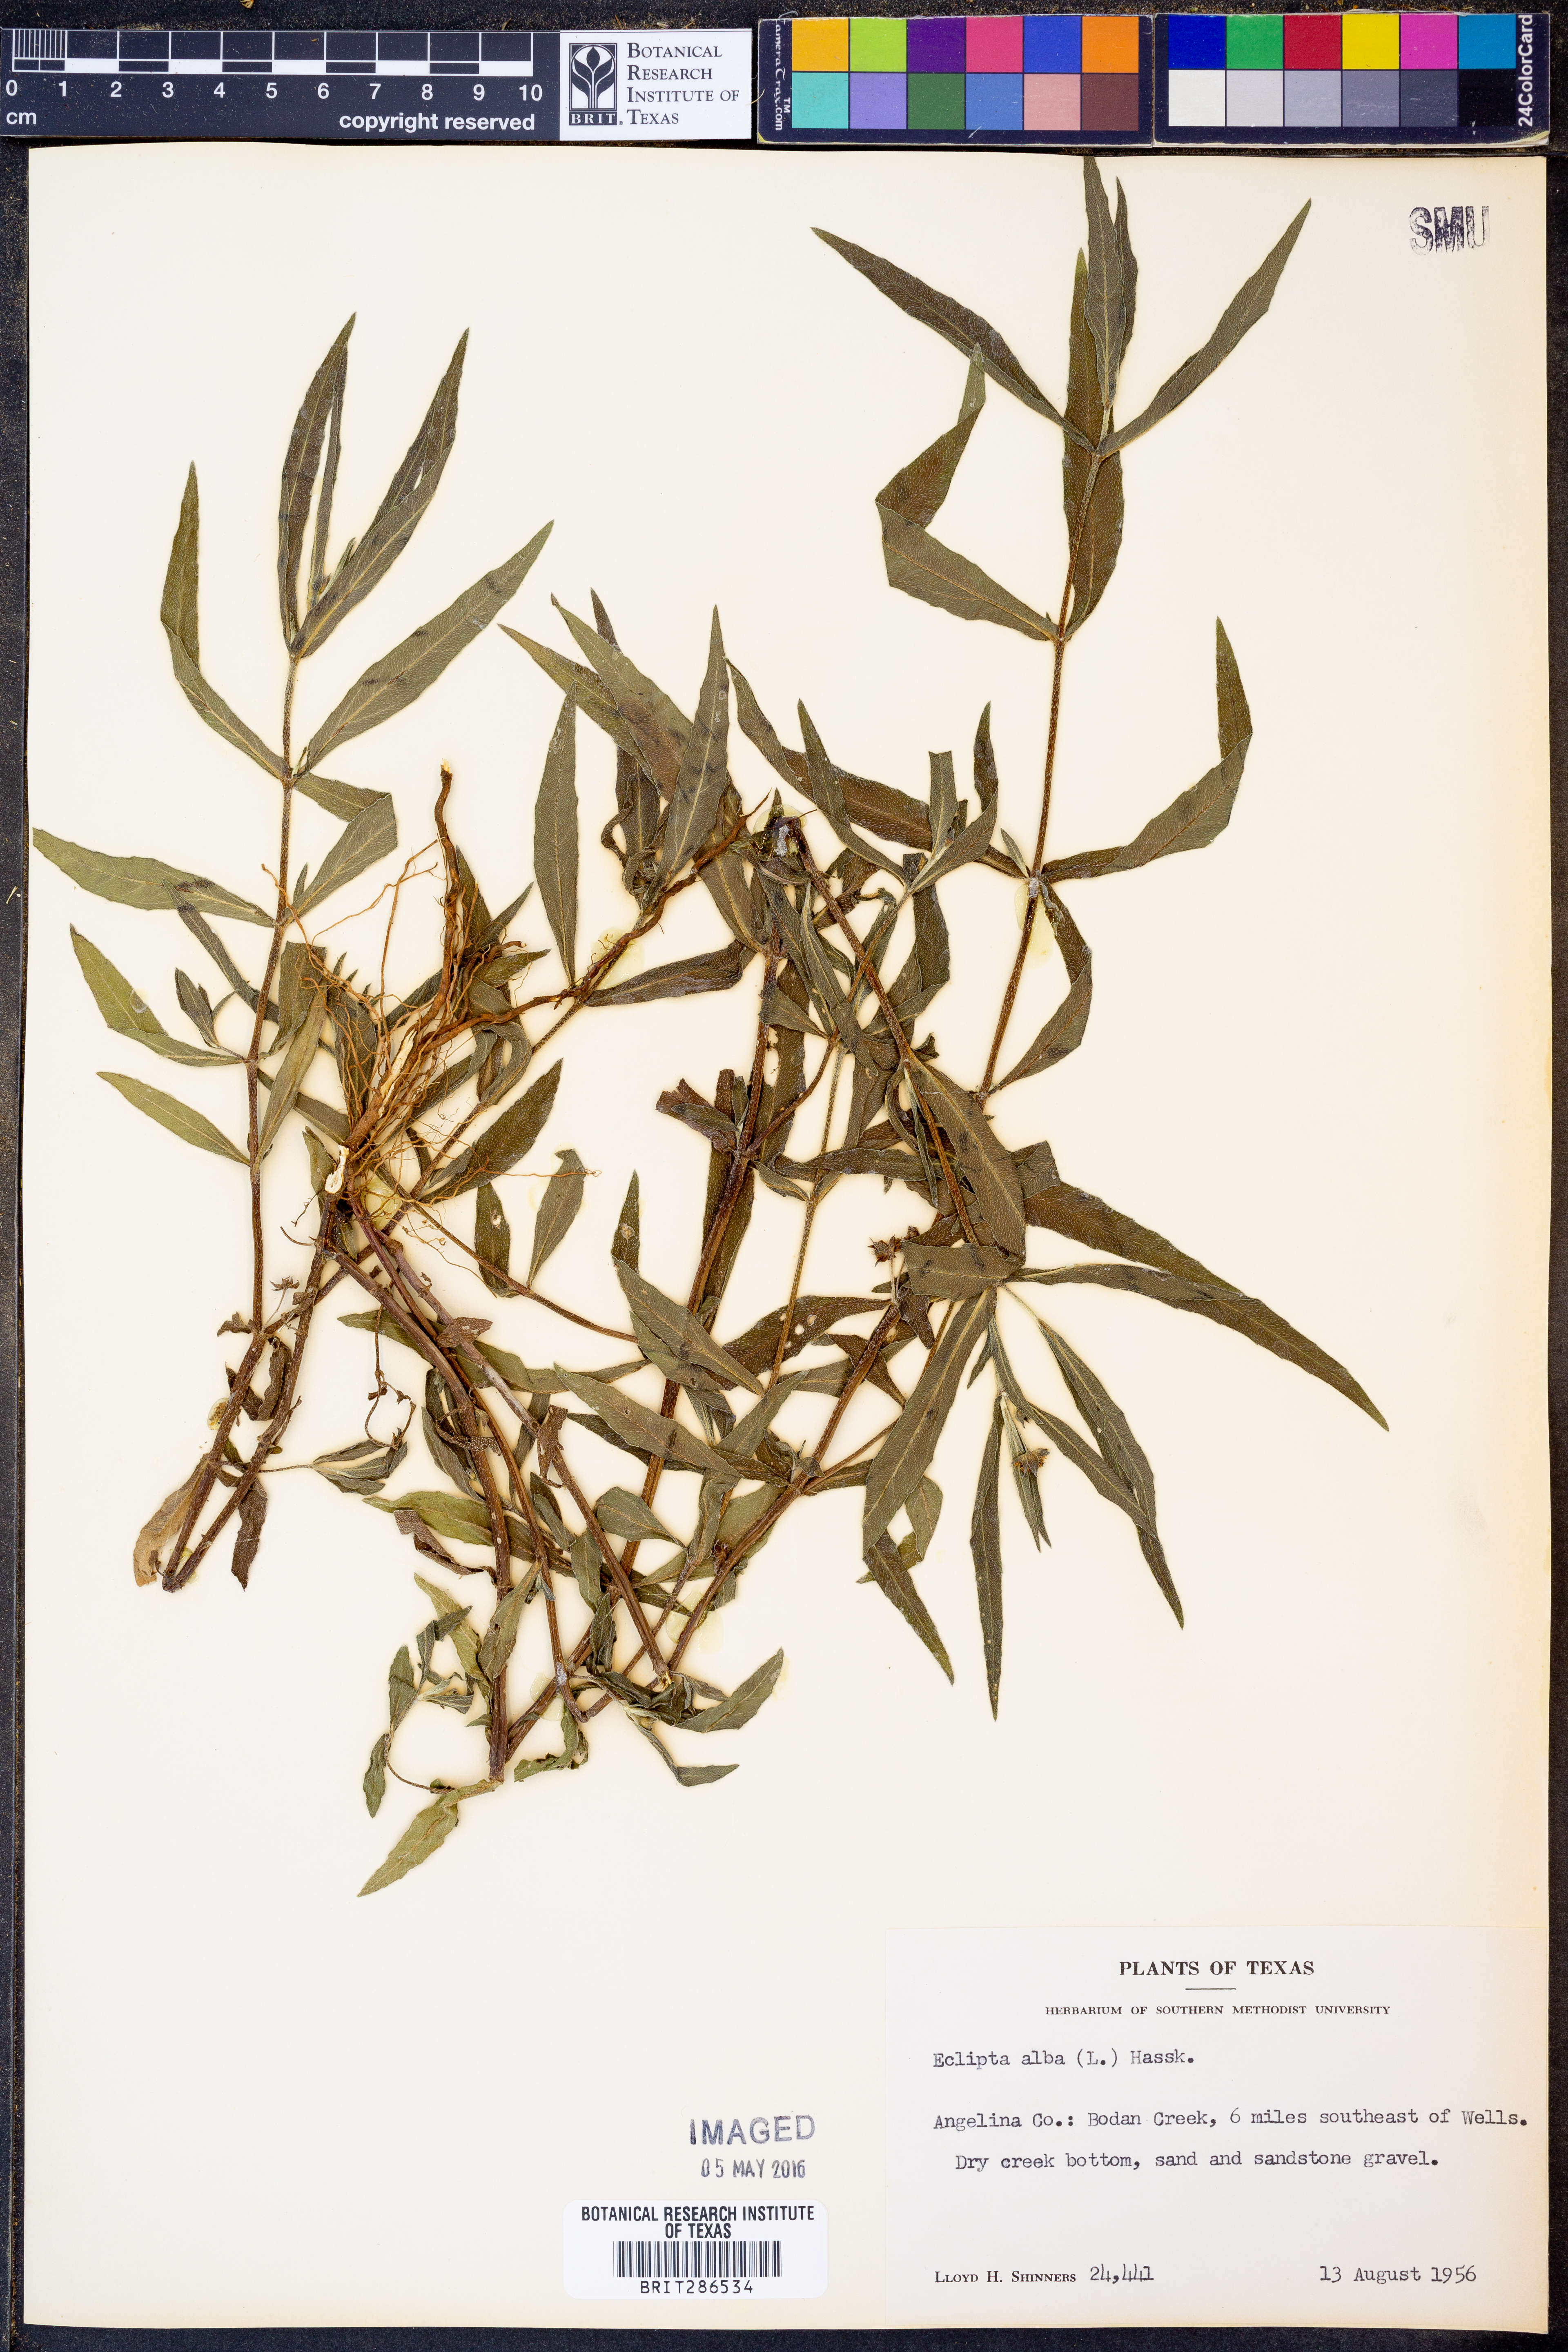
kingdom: Plantae
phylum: Tracheophyta
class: Magnoliopsida
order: Asterales
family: Asteraceae
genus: Eclipta
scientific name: Eclipta alba
